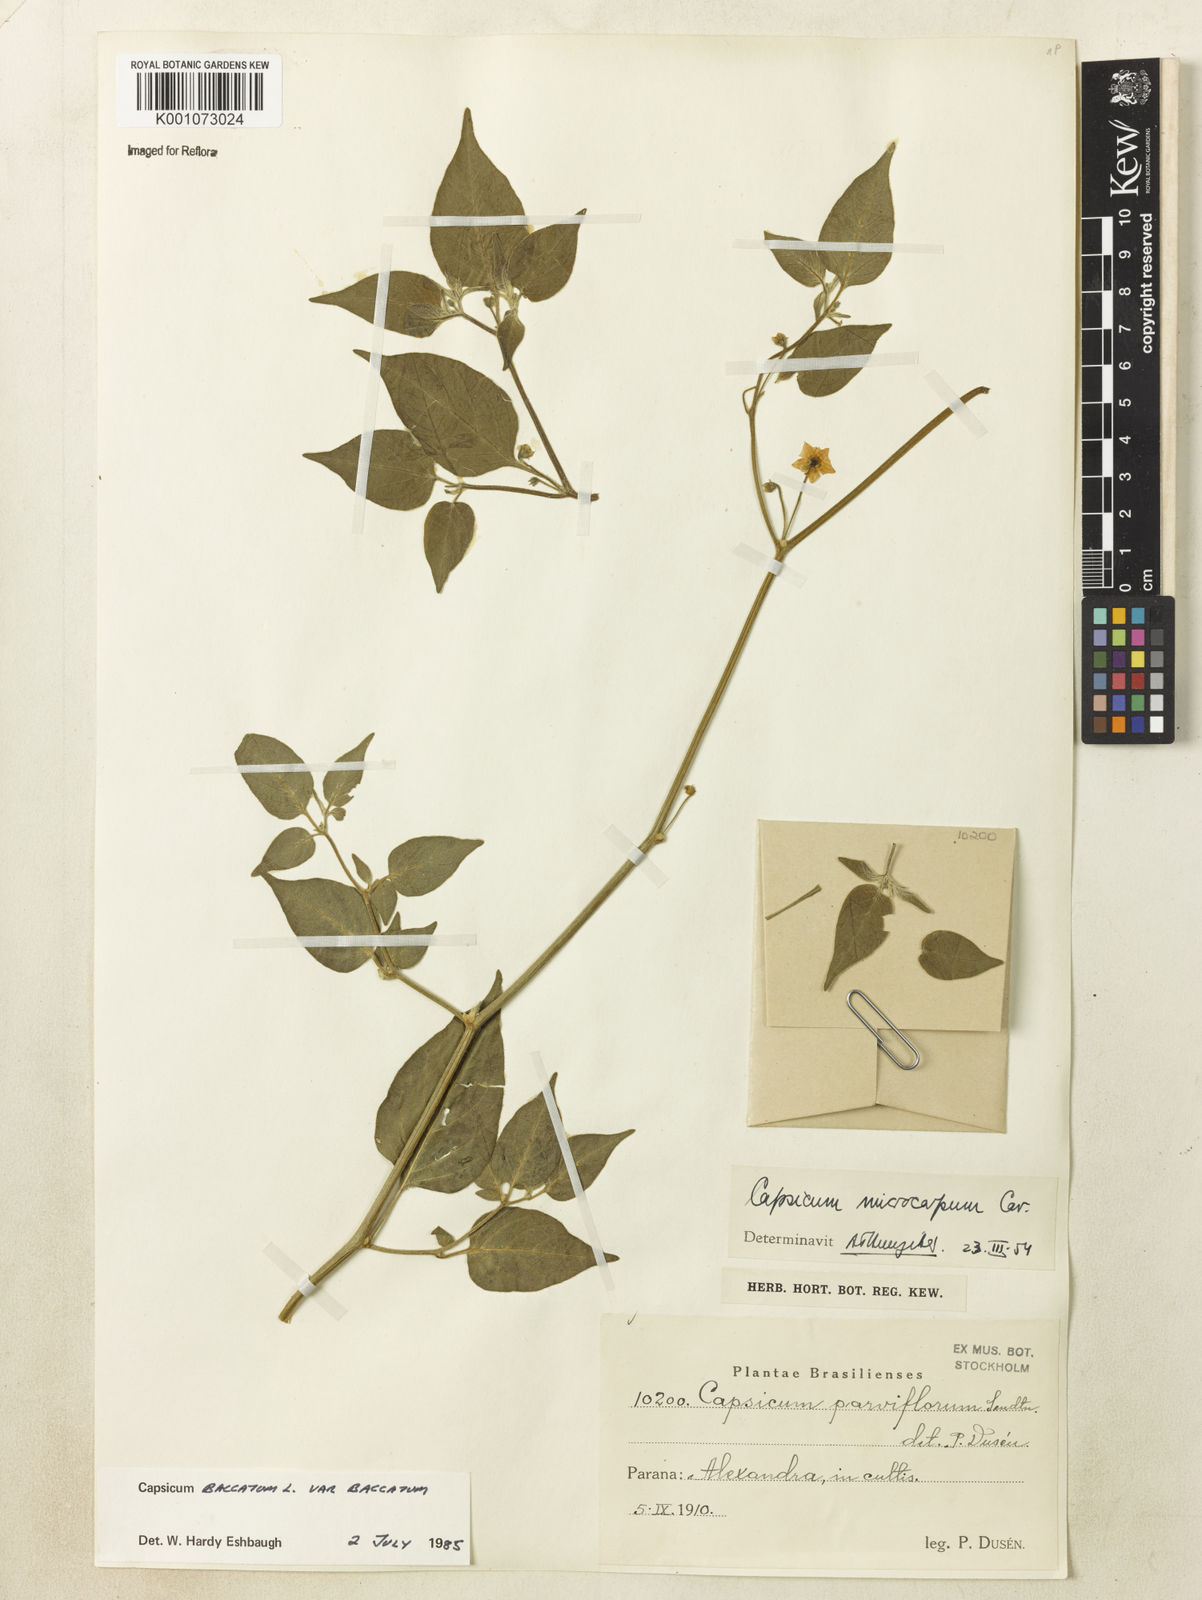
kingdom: Plantae
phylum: Tracheophyta
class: Magnoliopsida
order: Solanales
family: Solanaceae
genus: Capsicum
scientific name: Capsicum baccatum
